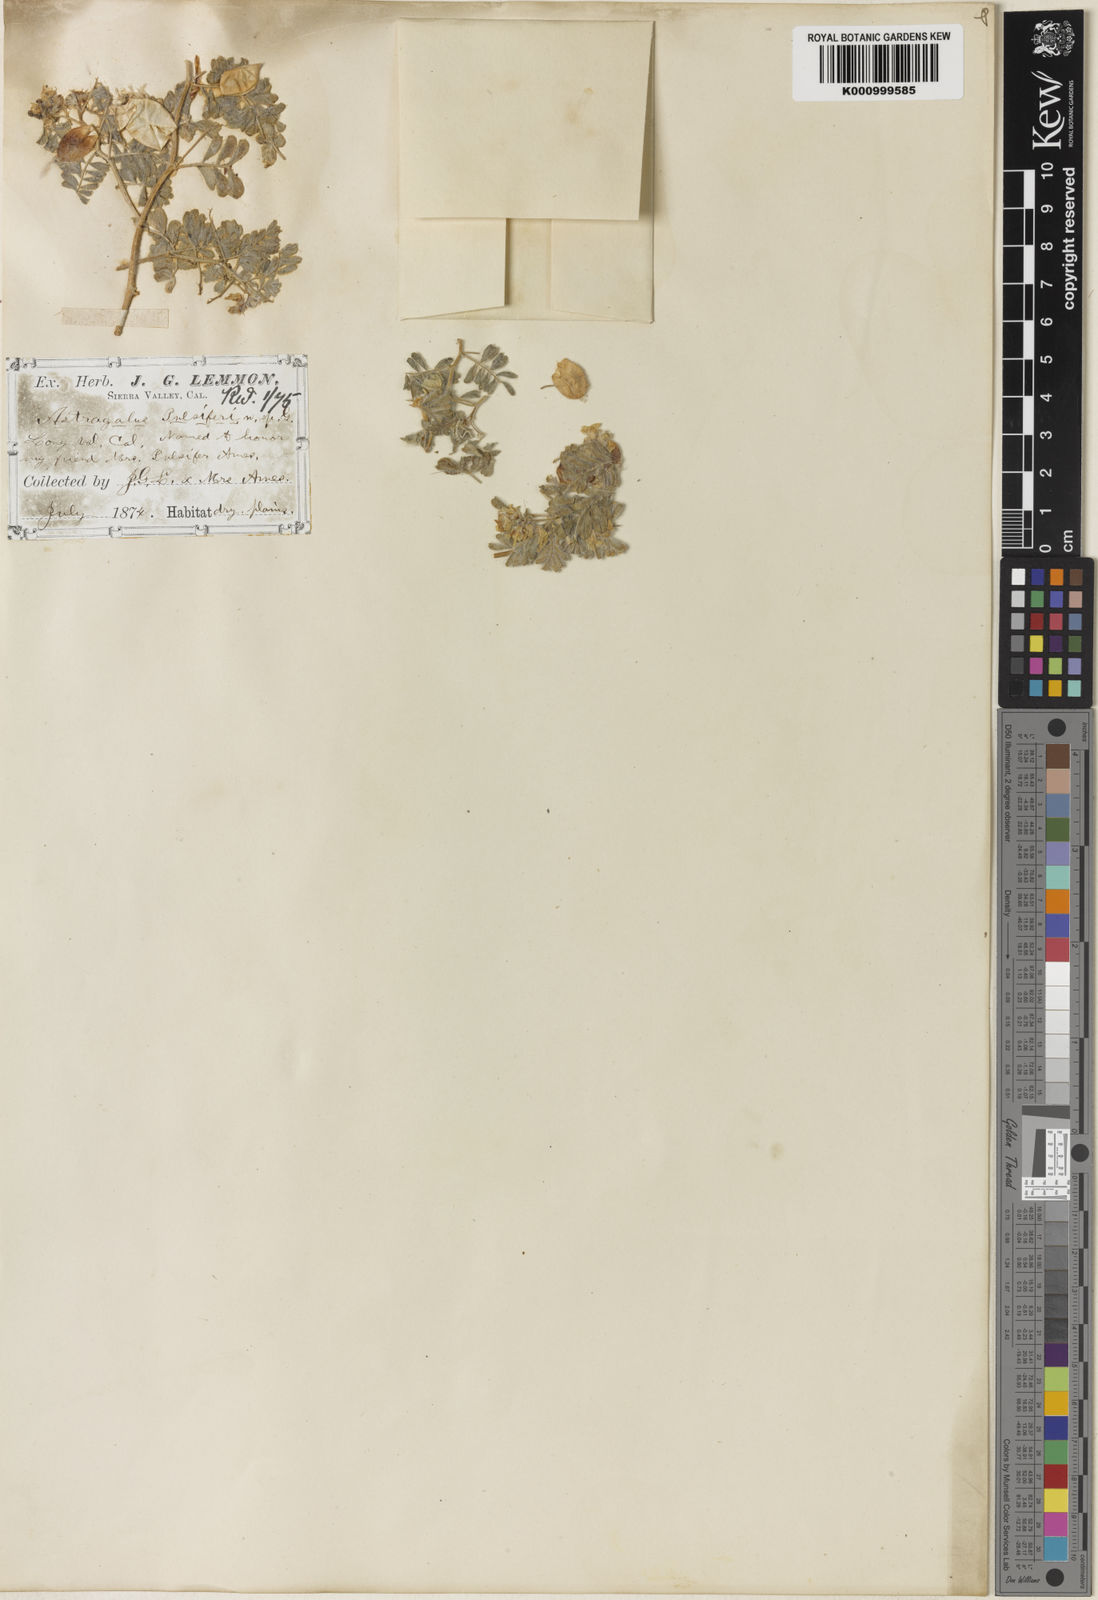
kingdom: Plantae
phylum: Tracheophyta
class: Magnoliopsida
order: Fabales
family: Fabaceae
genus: Astragalus
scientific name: Astragalus pulsiferae
